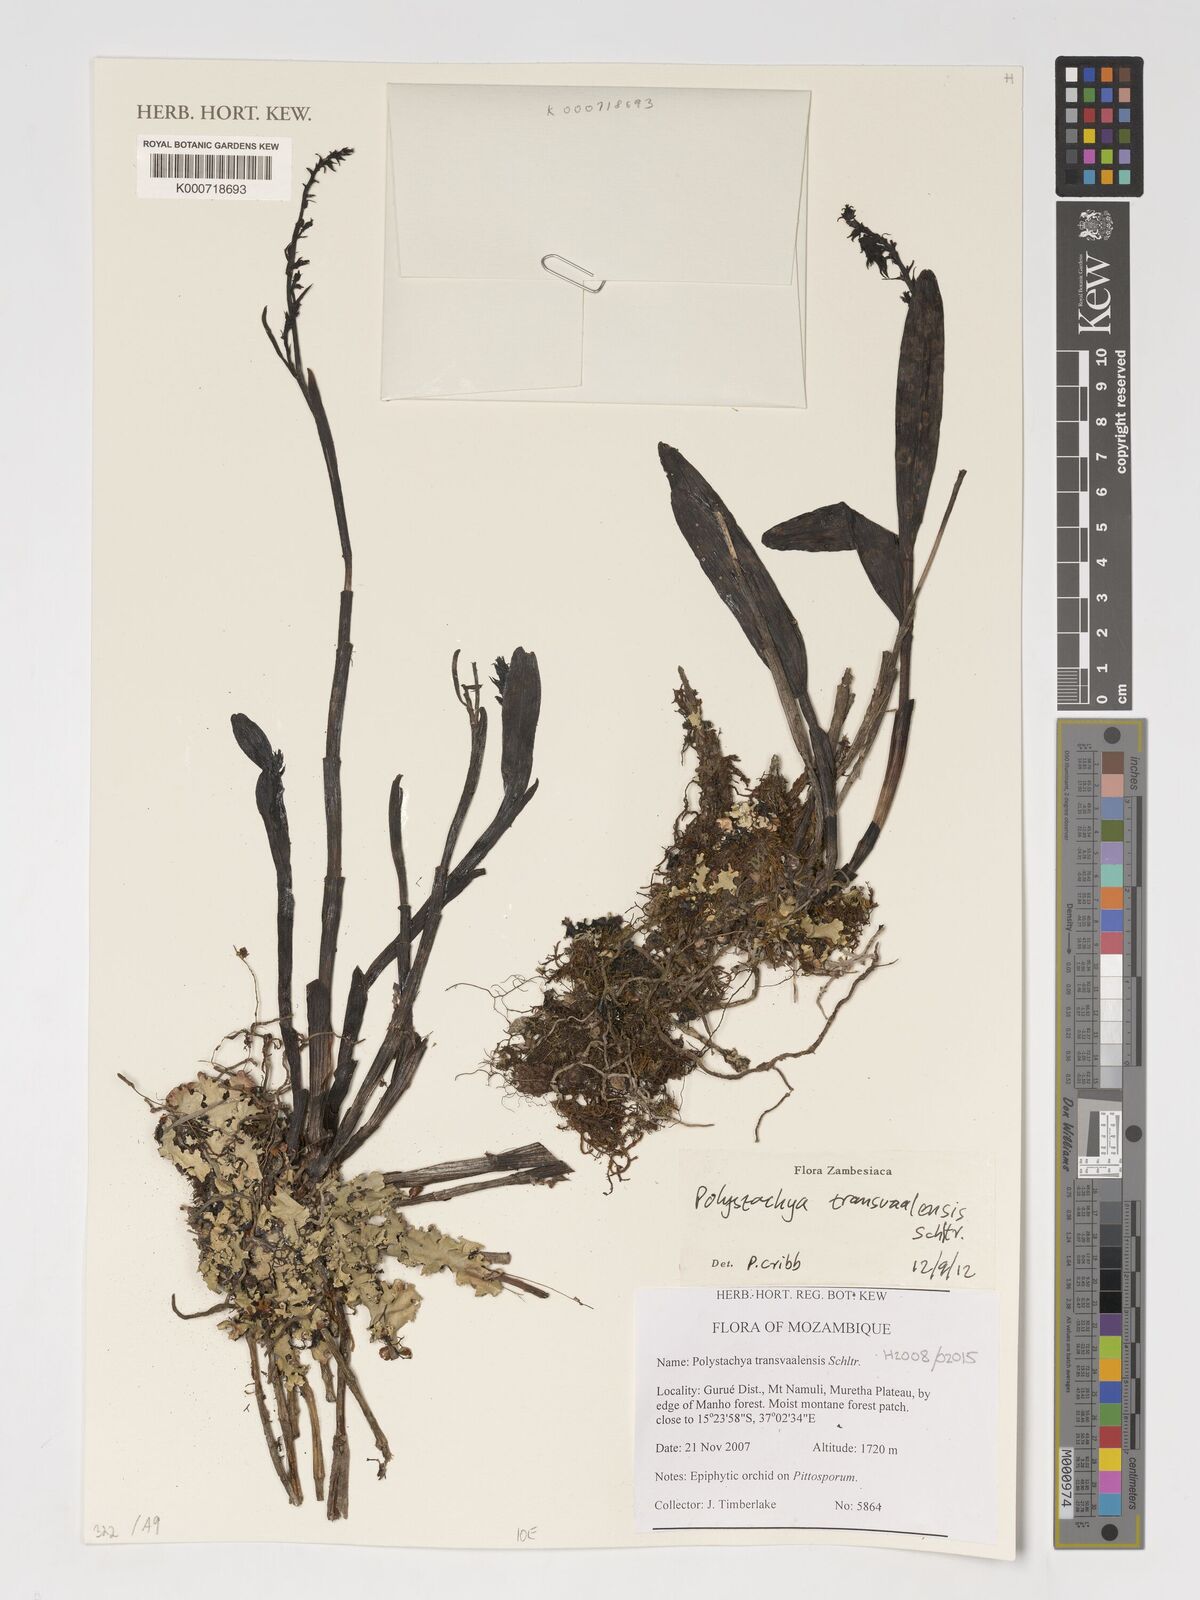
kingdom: Plantae
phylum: Tracheophyta
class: Liliopsida
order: Asparagales
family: Orchidaceae
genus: Polystachya
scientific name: Polystachya transvaalensis
